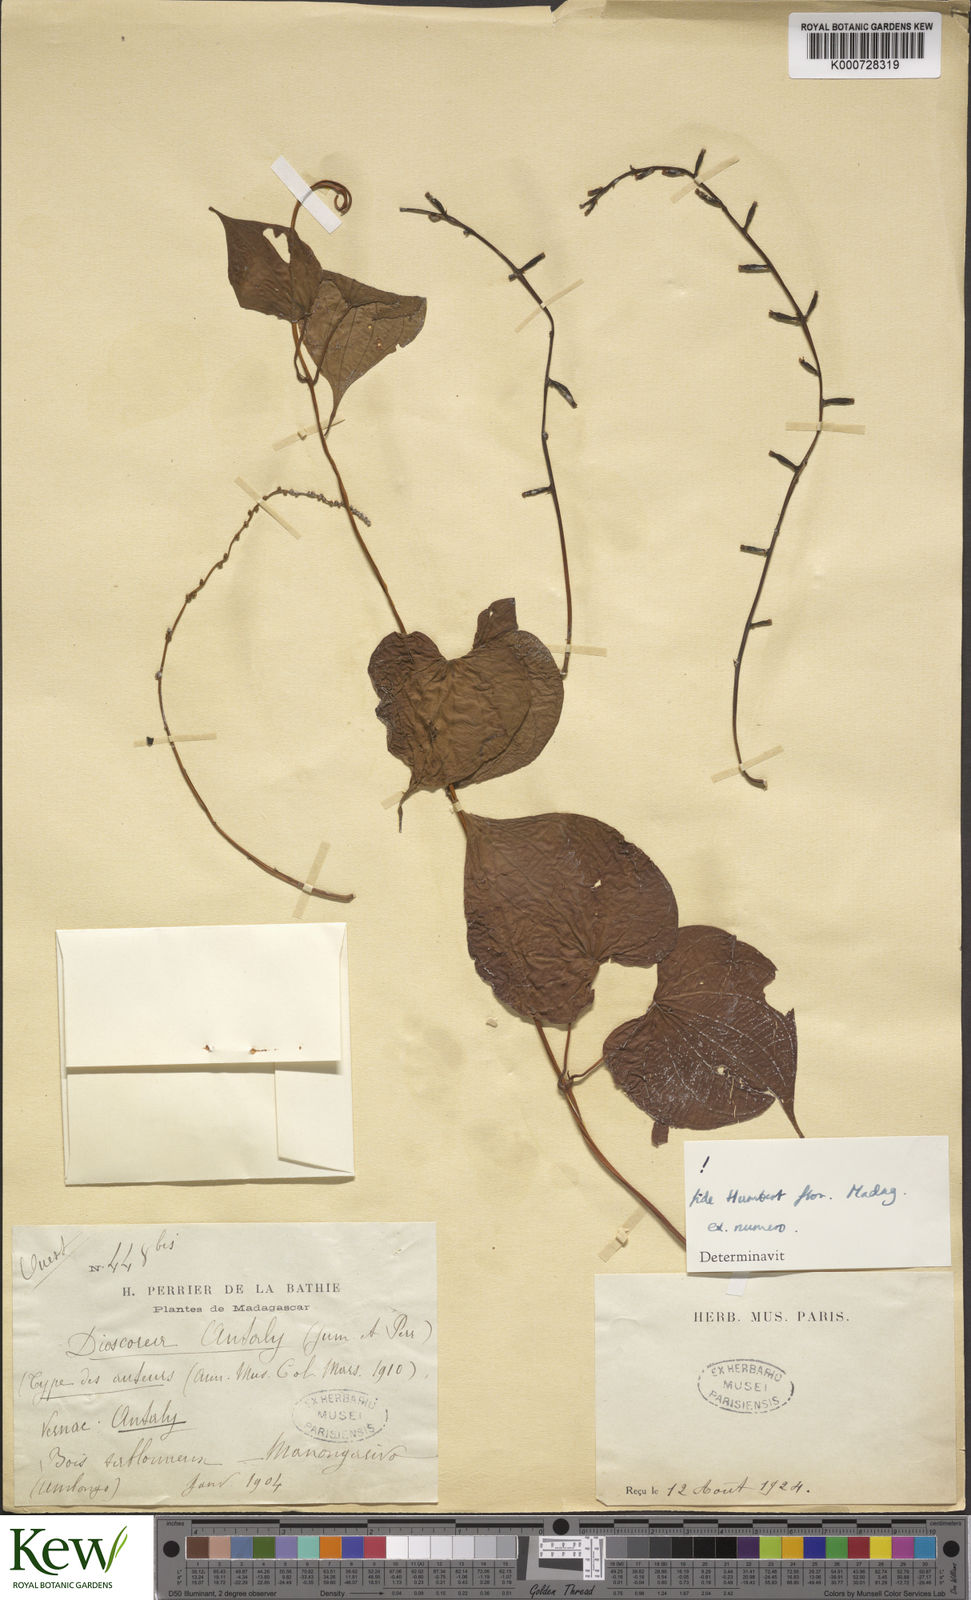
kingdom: Plantae
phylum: Tracheophyta
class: Liliopsida
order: Dioscoreales
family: Dioscoreaceae
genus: Dioscorea
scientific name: Dioscorea antaly
